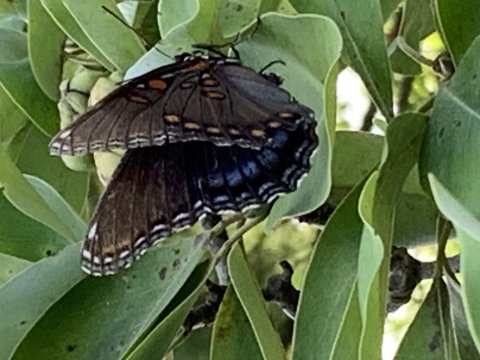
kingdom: Animalia
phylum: Arthropoda
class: Insecta
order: Lepidoptera
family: Nymphalidae
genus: Limenitis
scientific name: Limenitis arthemis
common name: Red-spotted Admiral
